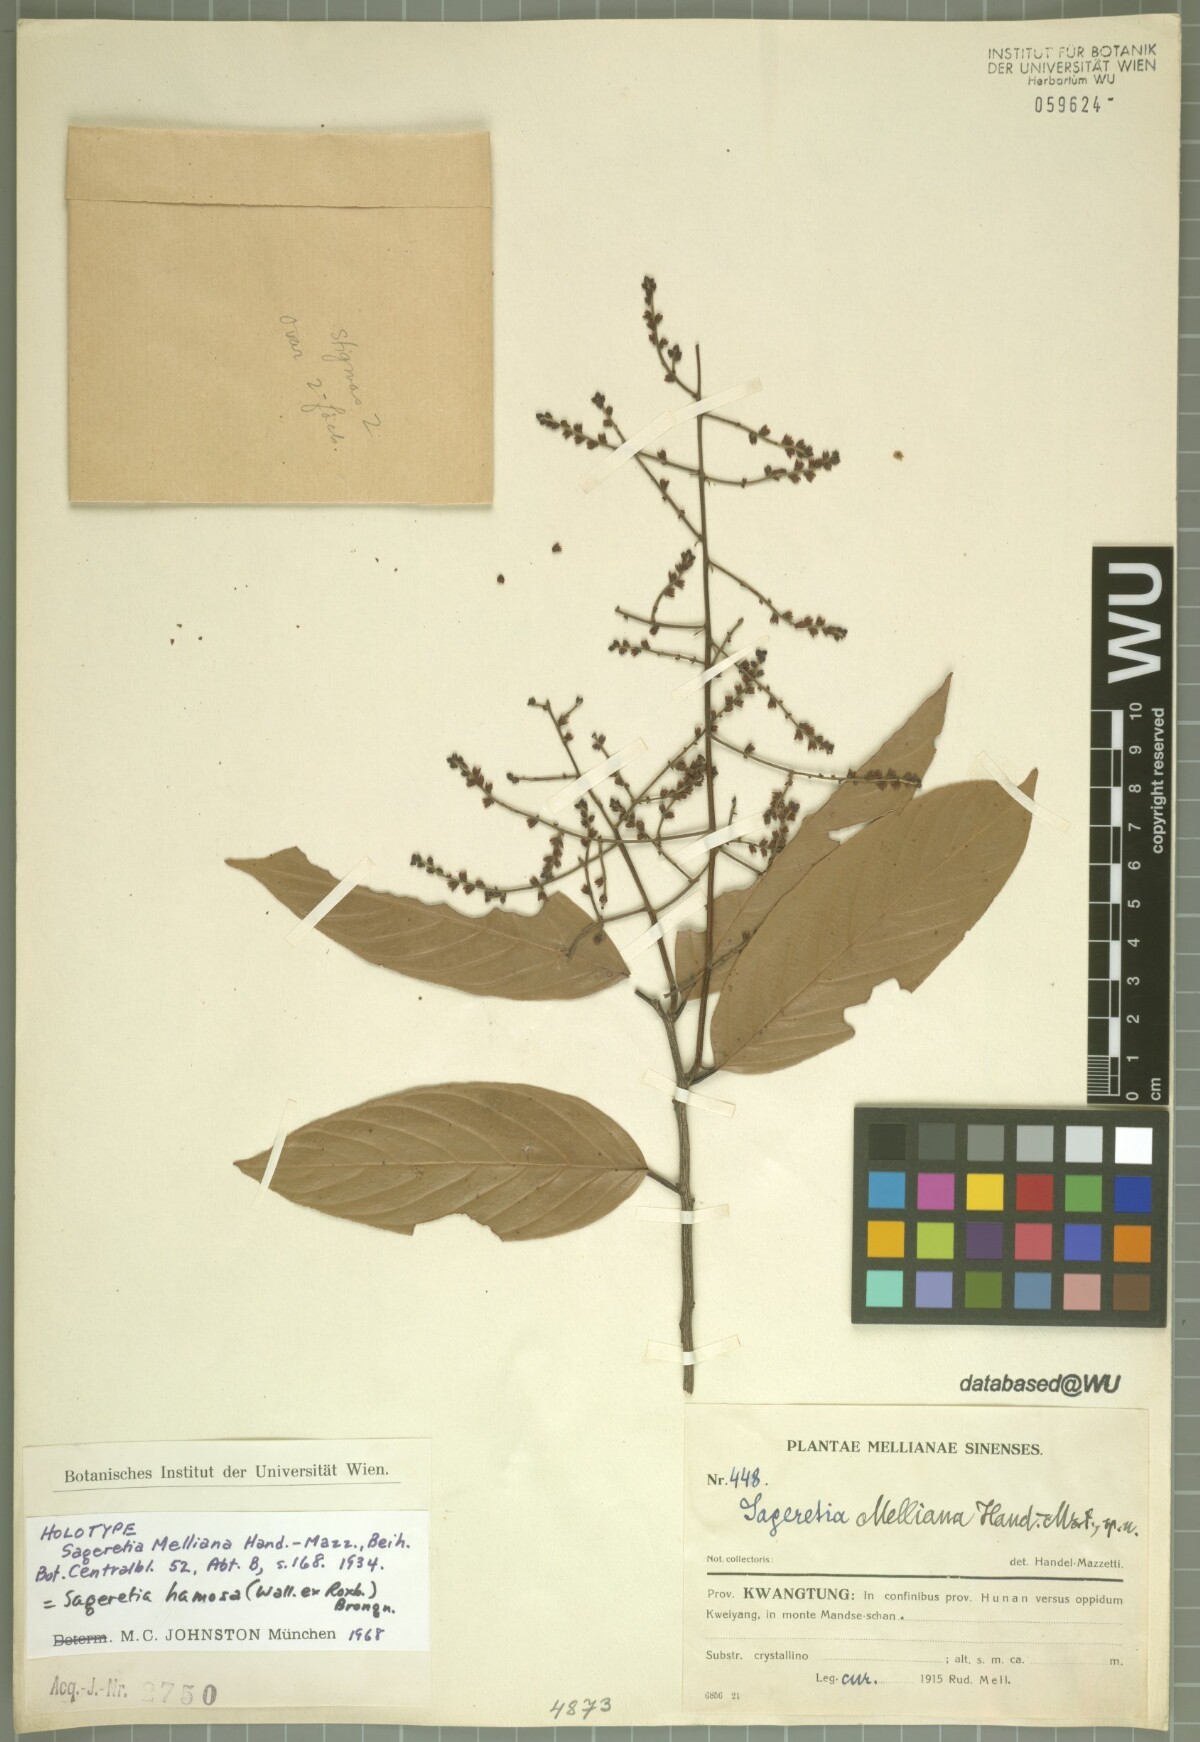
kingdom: Plantae
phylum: Tracheophyta
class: Magnoliopsida
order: Rosales
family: Rhamnaceae
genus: Sageretia
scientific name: Sageretia melliana
